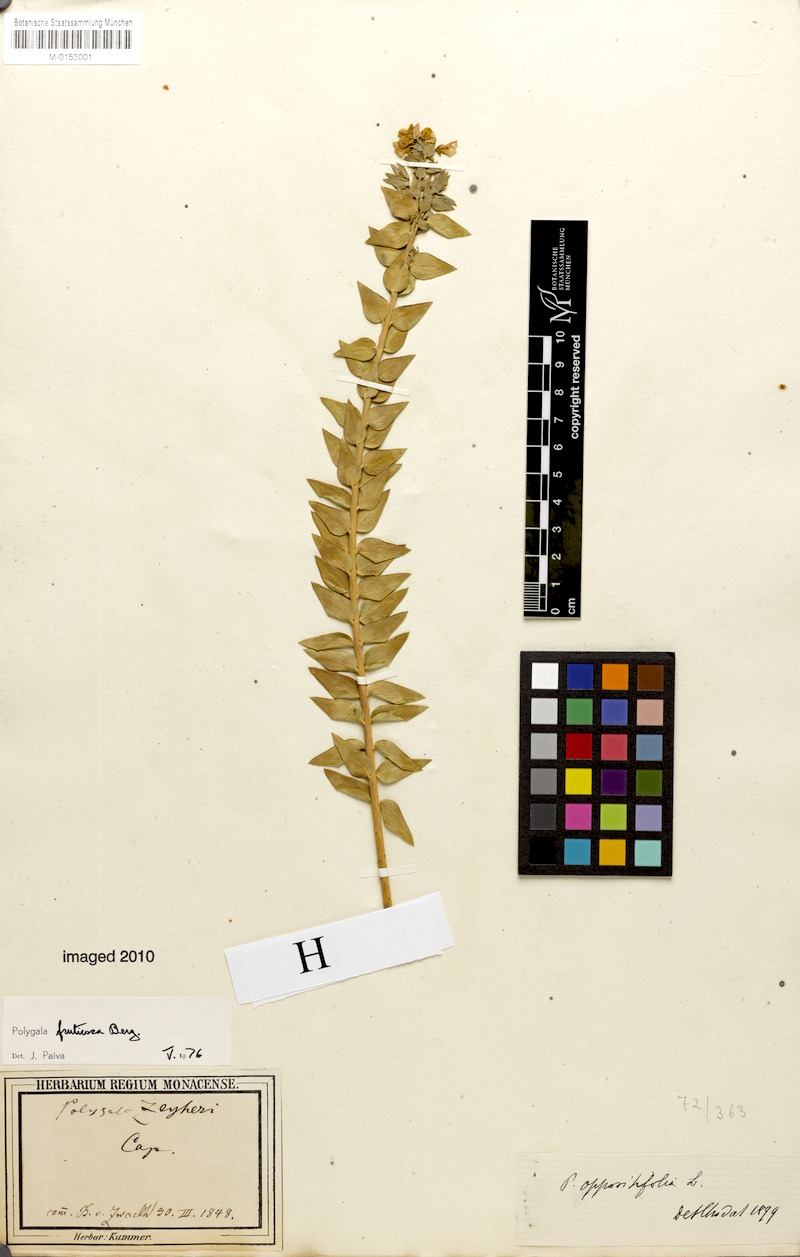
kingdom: Plantae
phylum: Tracheophyta
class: Magnoliopsida
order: Fabales
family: Polygalaceae
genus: Polygala
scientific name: Polygala fruticosa
